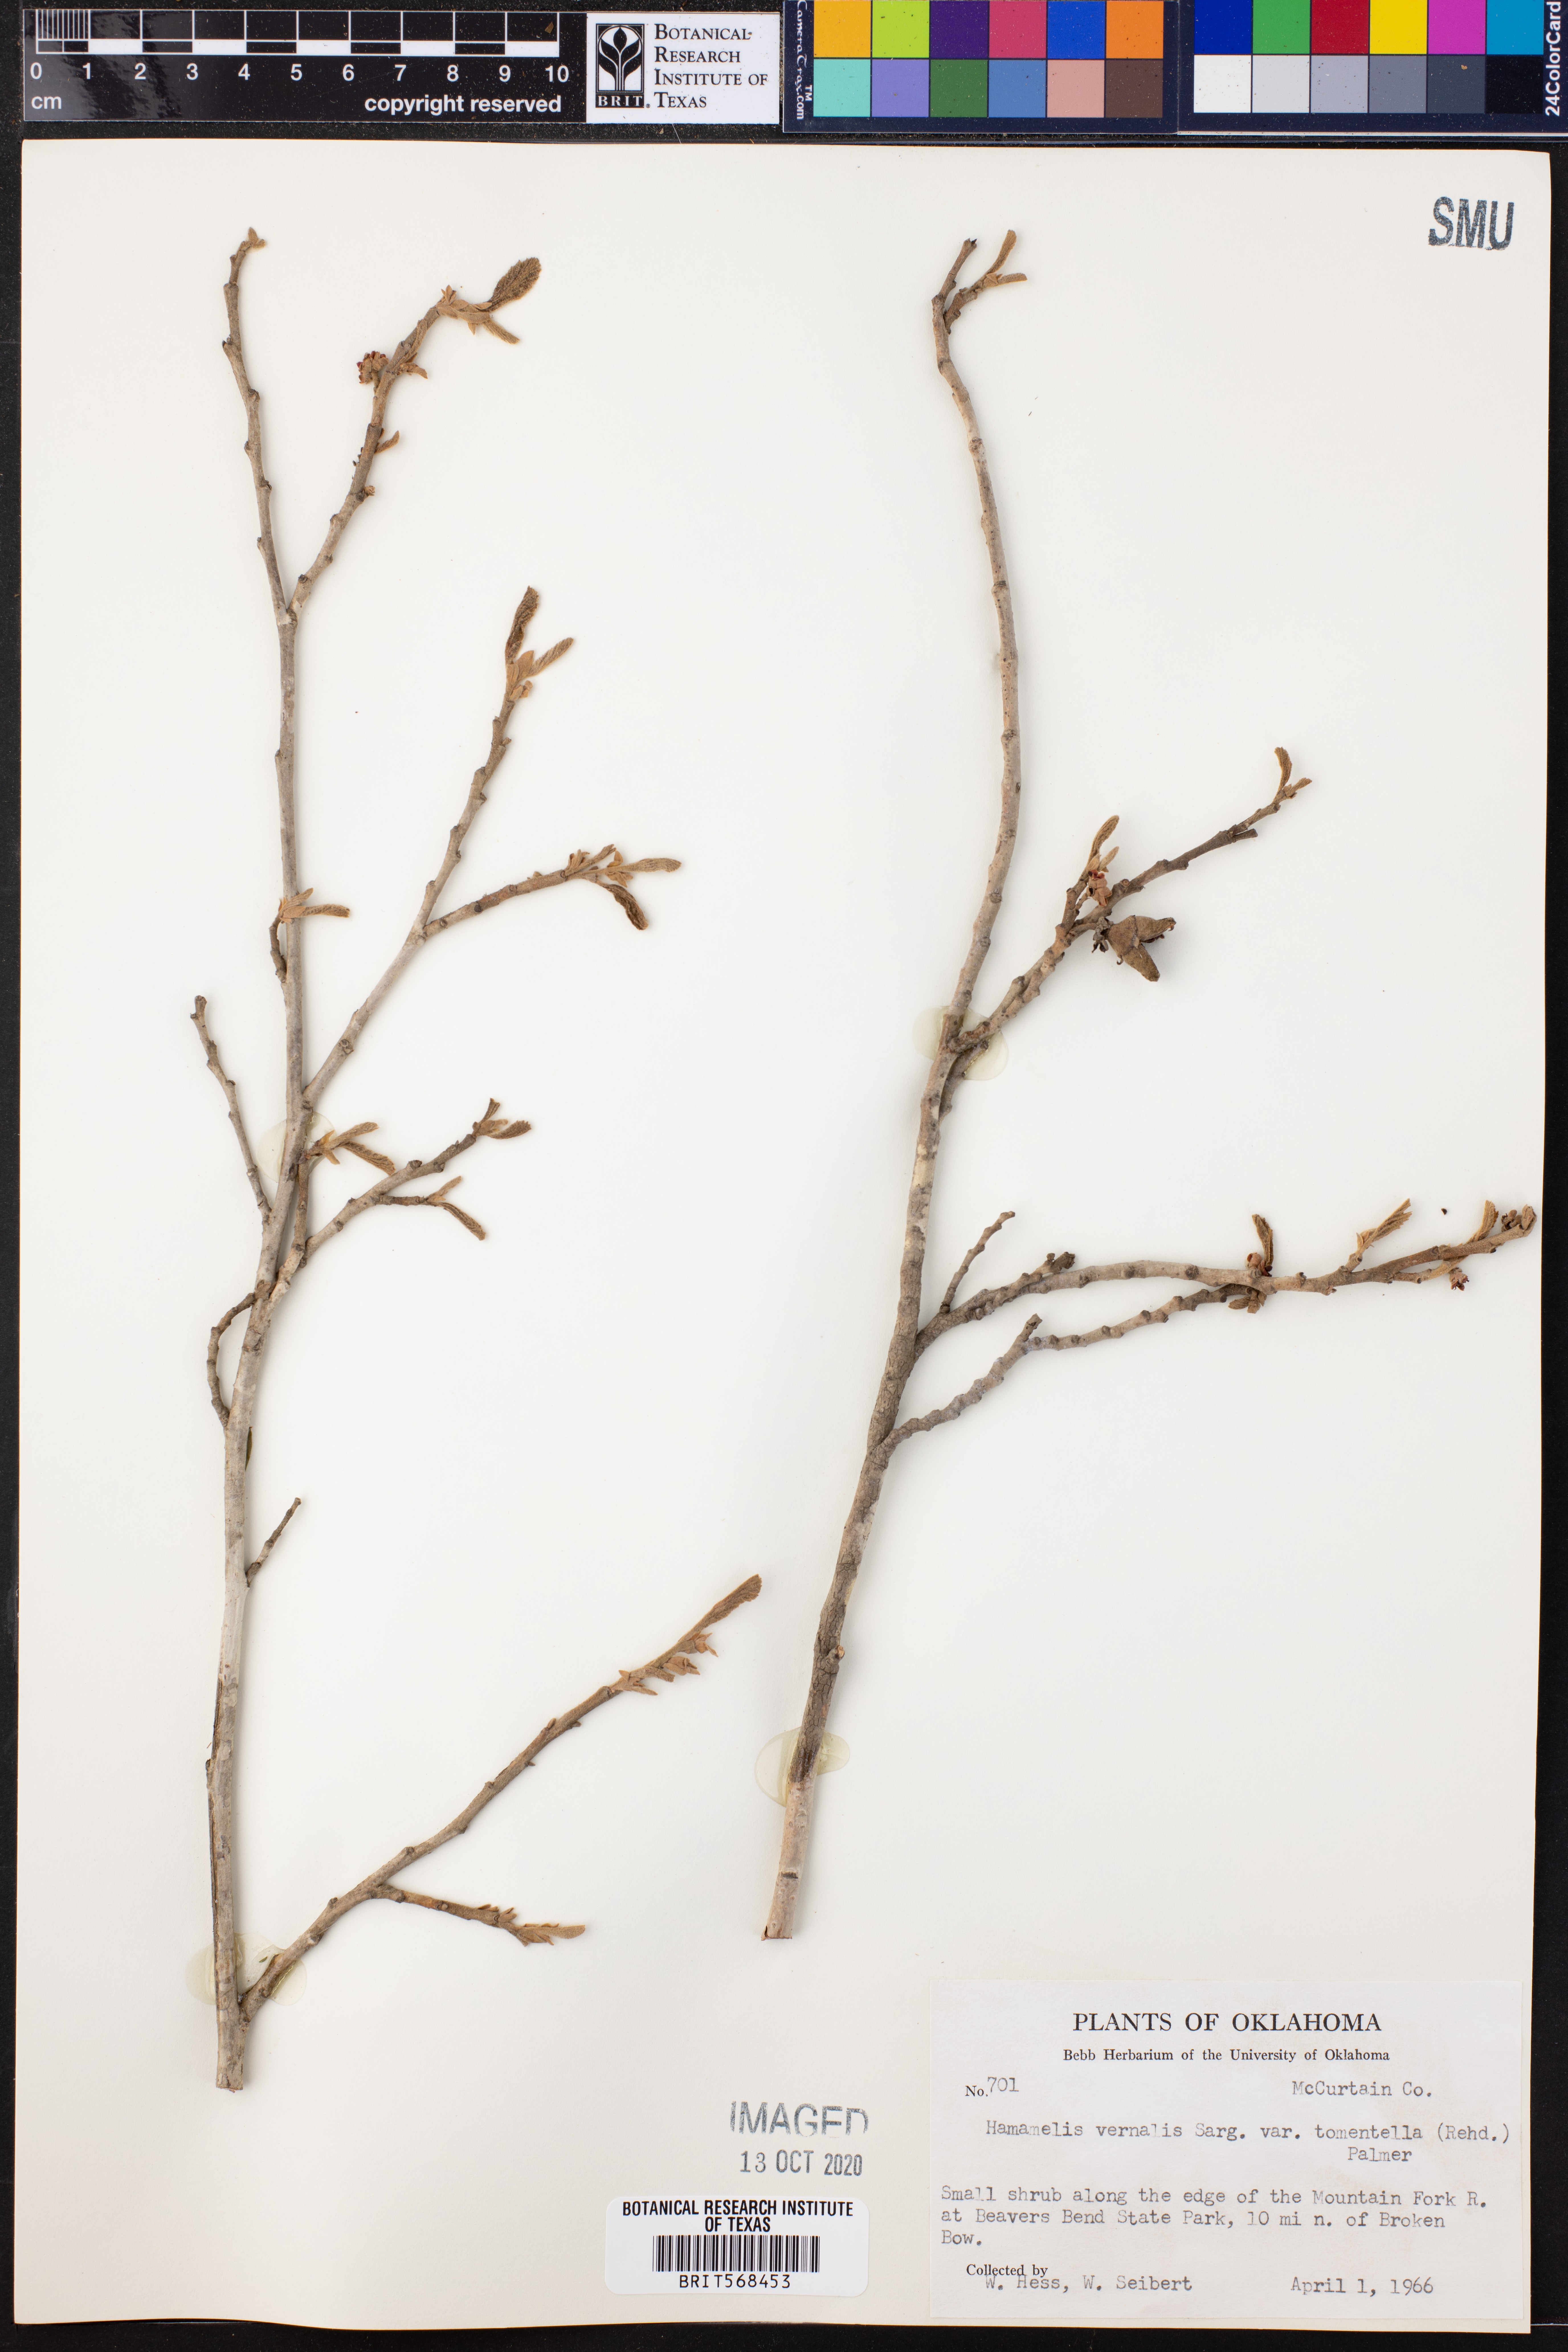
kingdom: Plantae
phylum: Tracheophyta
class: Magnoliopsida
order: Saxifragales
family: Hamamelidaceae
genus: Hamamelis
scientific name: Hamamelis vernalis
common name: Ozark witch-hazel
